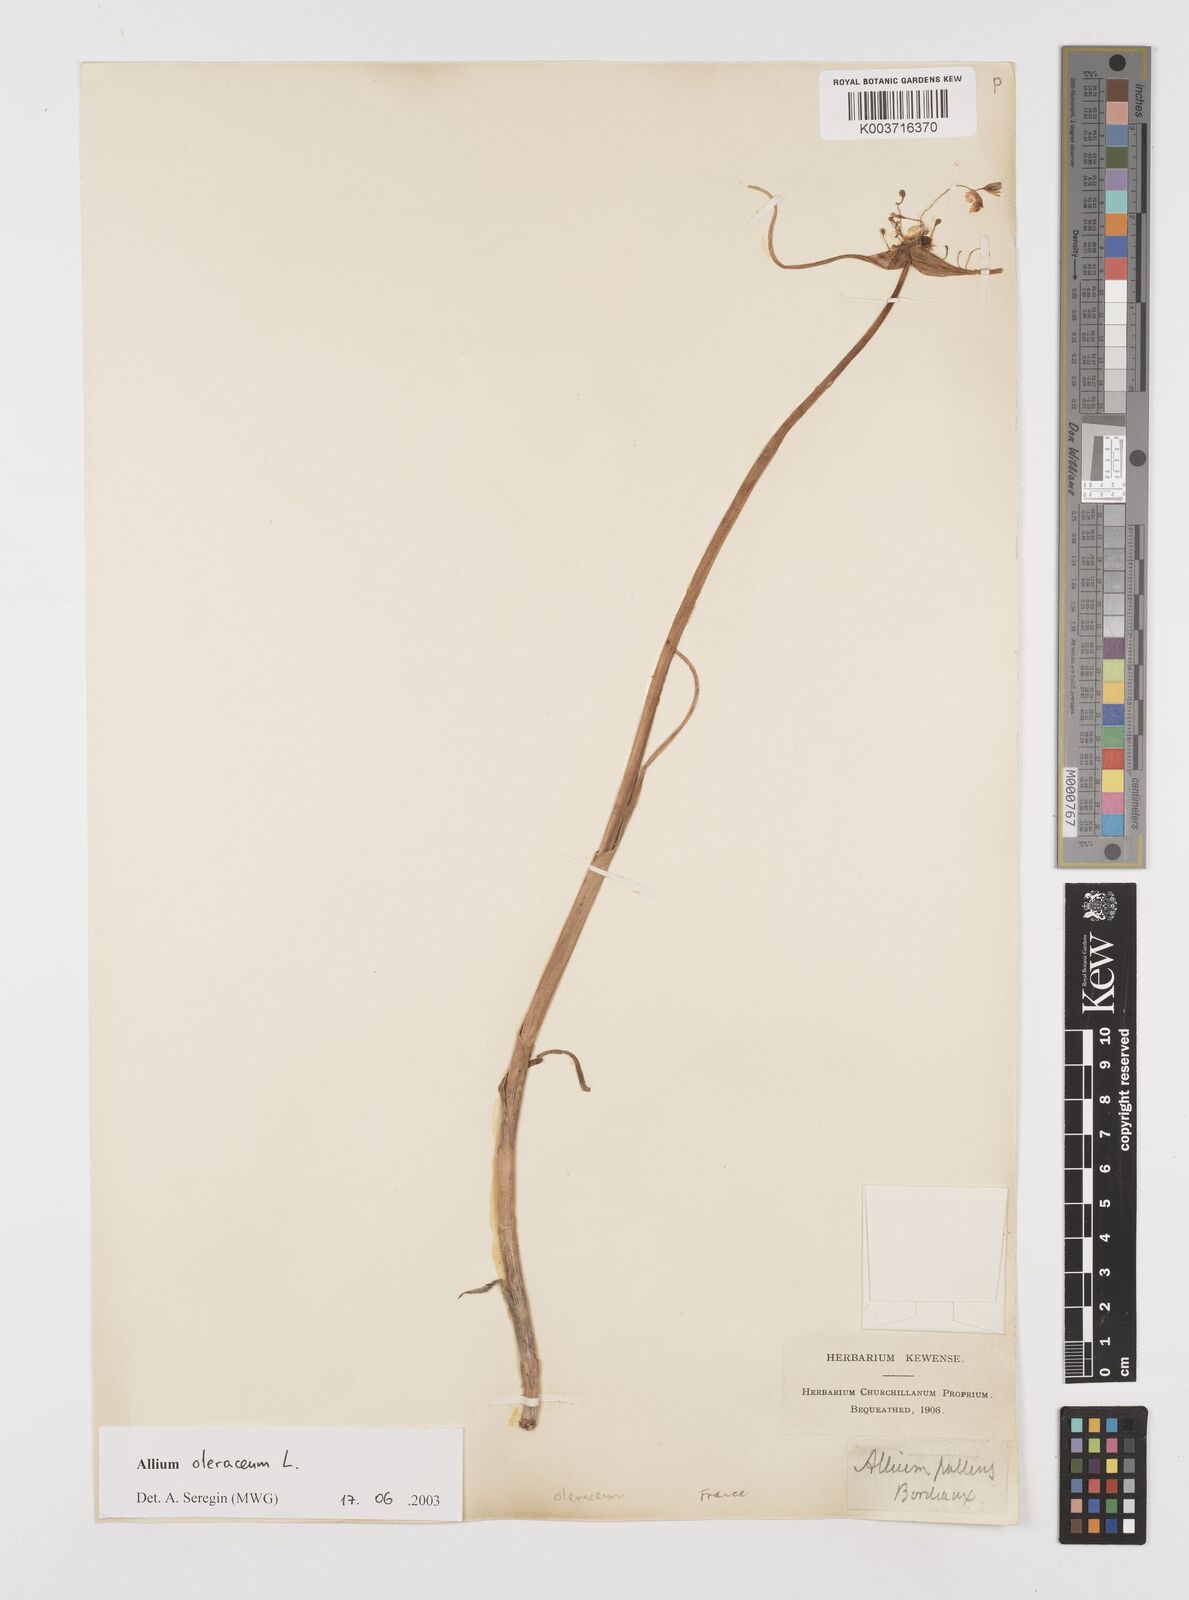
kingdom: Plantae
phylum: Tracheophyta
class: Liliopsida
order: Asparagales
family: Amaryllidaceae
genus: Allium
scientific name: Allium oleraceum
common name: Field garlic
